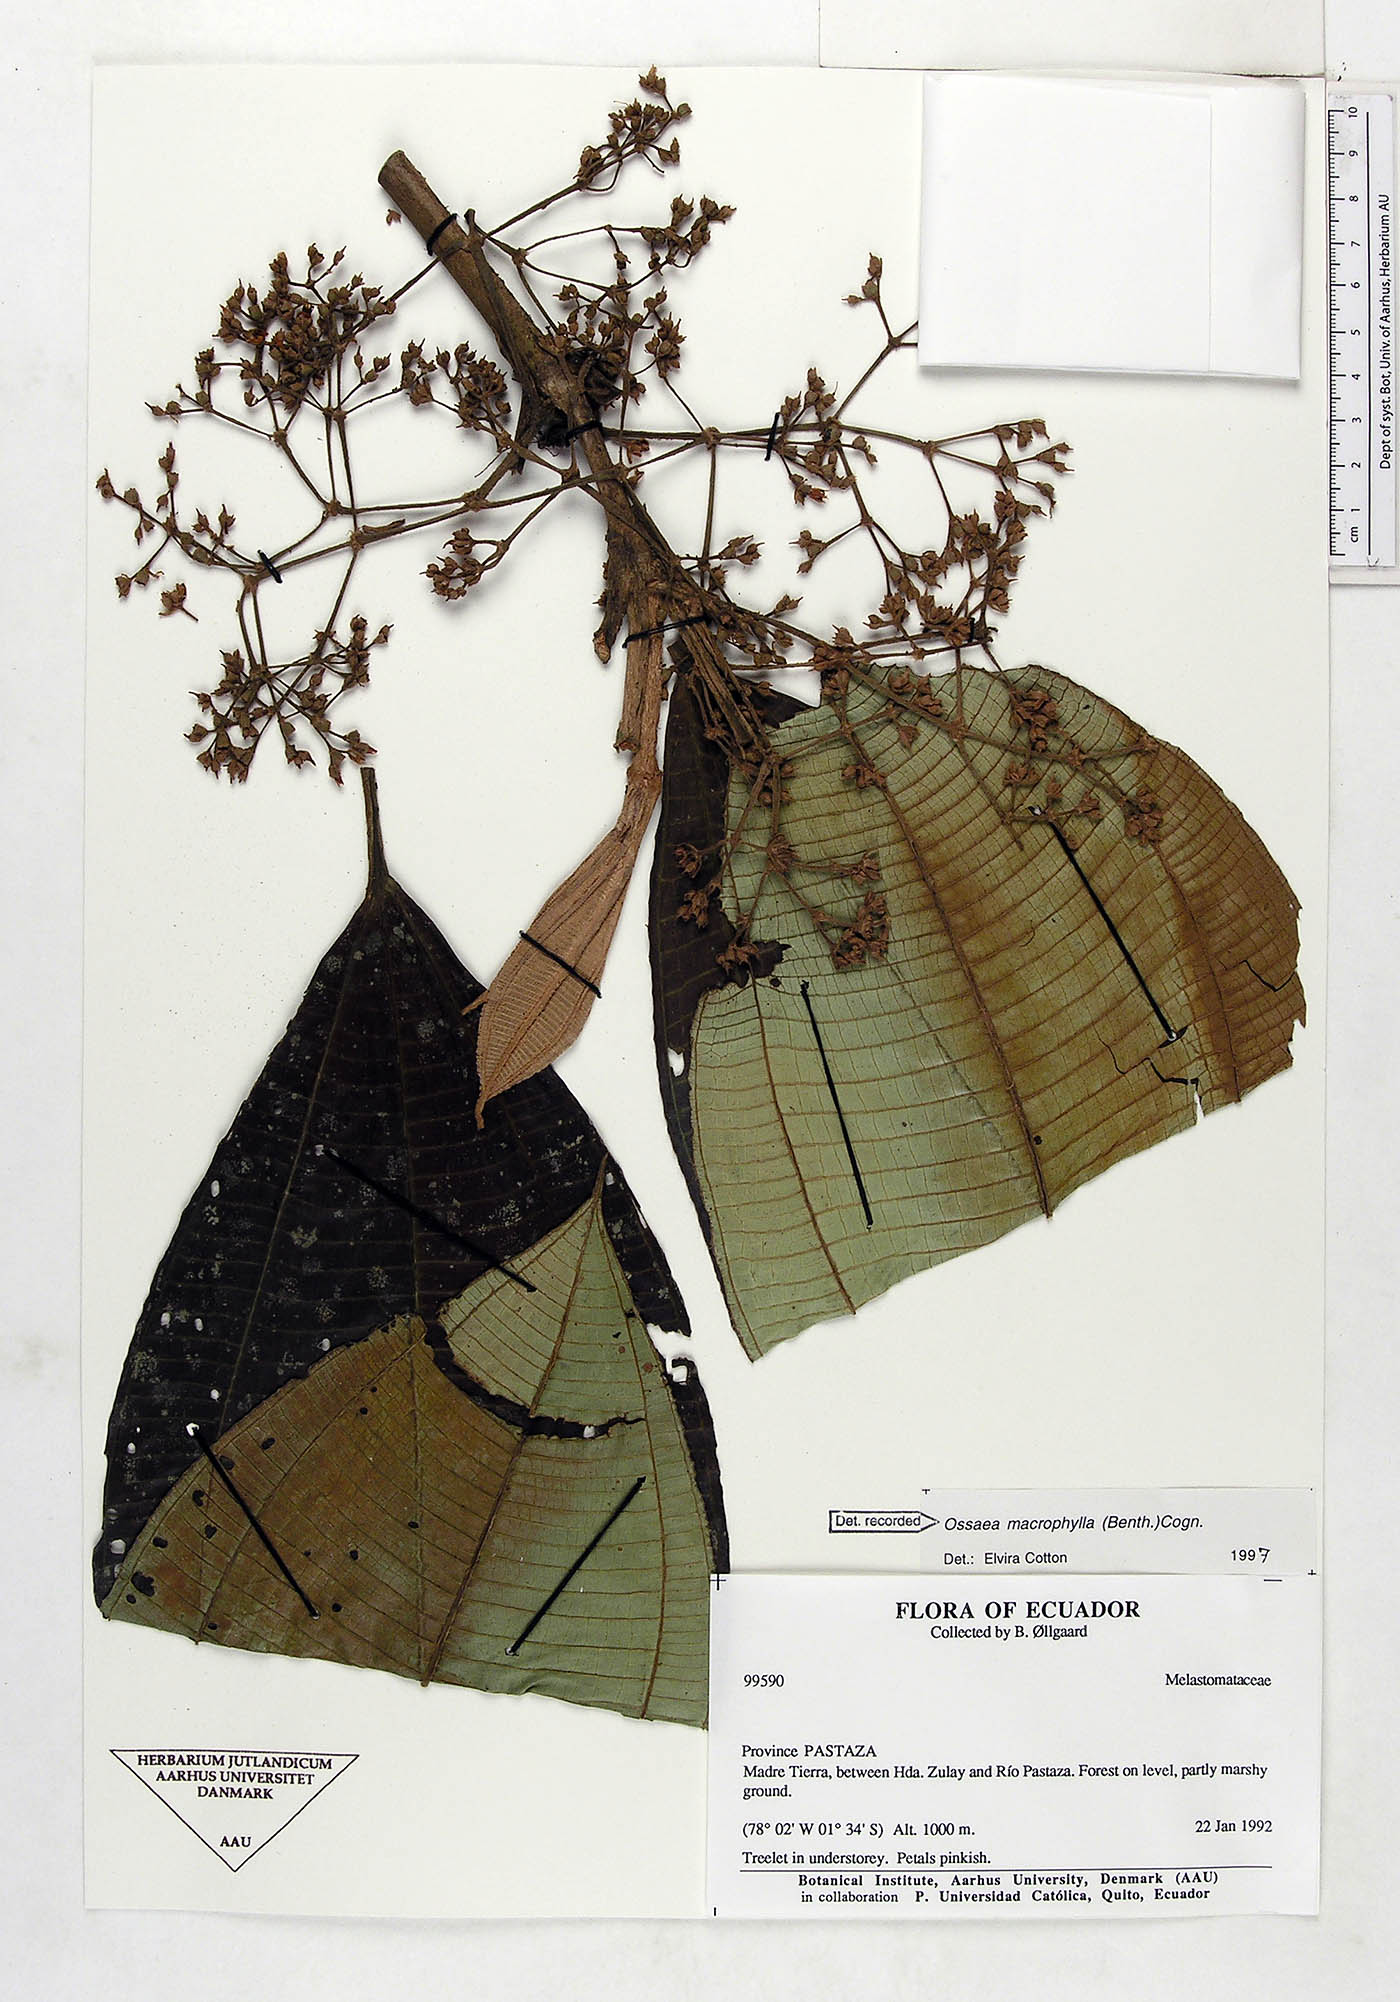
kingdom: Plantae
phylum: Tracheophyta
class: Magnoliopsida
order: Myrtales
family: Melastomataceae
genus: Miconia
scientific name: Miconia magnifolia
